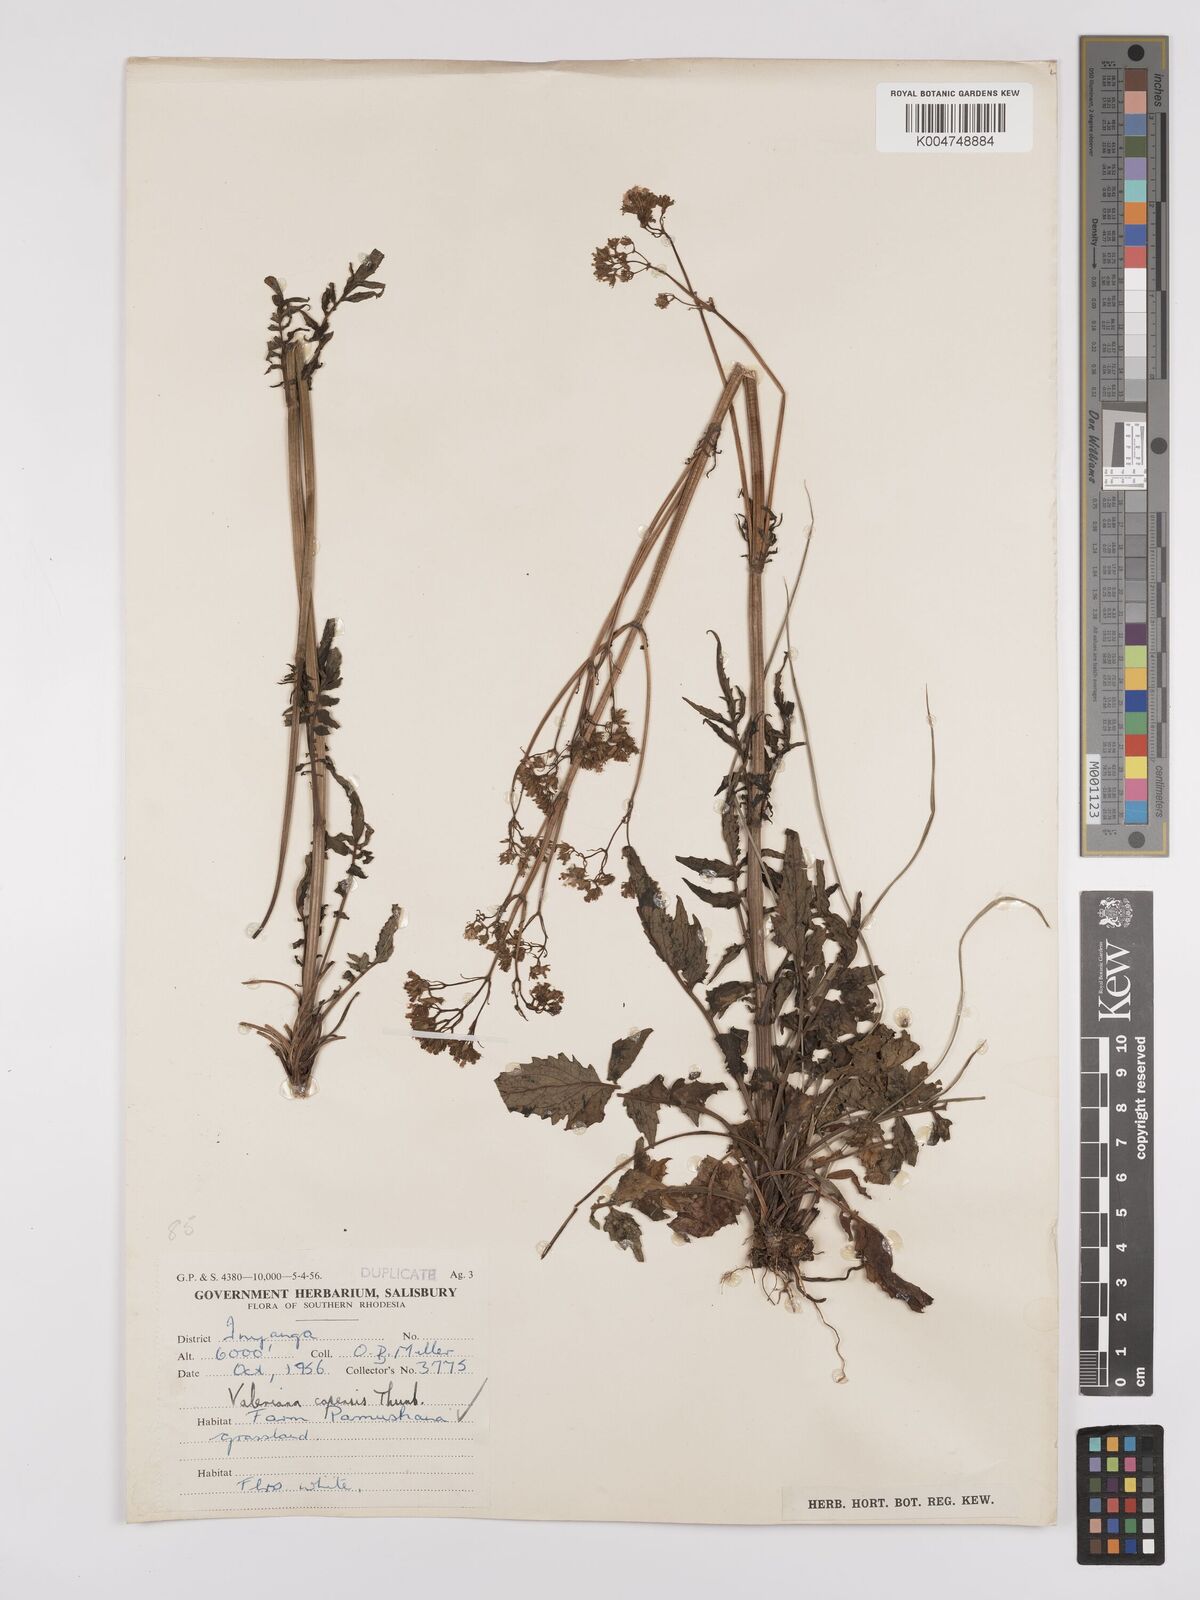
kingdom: Plantae
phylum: Tracheophyta
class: Magnoliopsida
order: Dipsacales
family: Caprifoliaceae
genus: Valeriana
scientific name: Valeriana capensis
